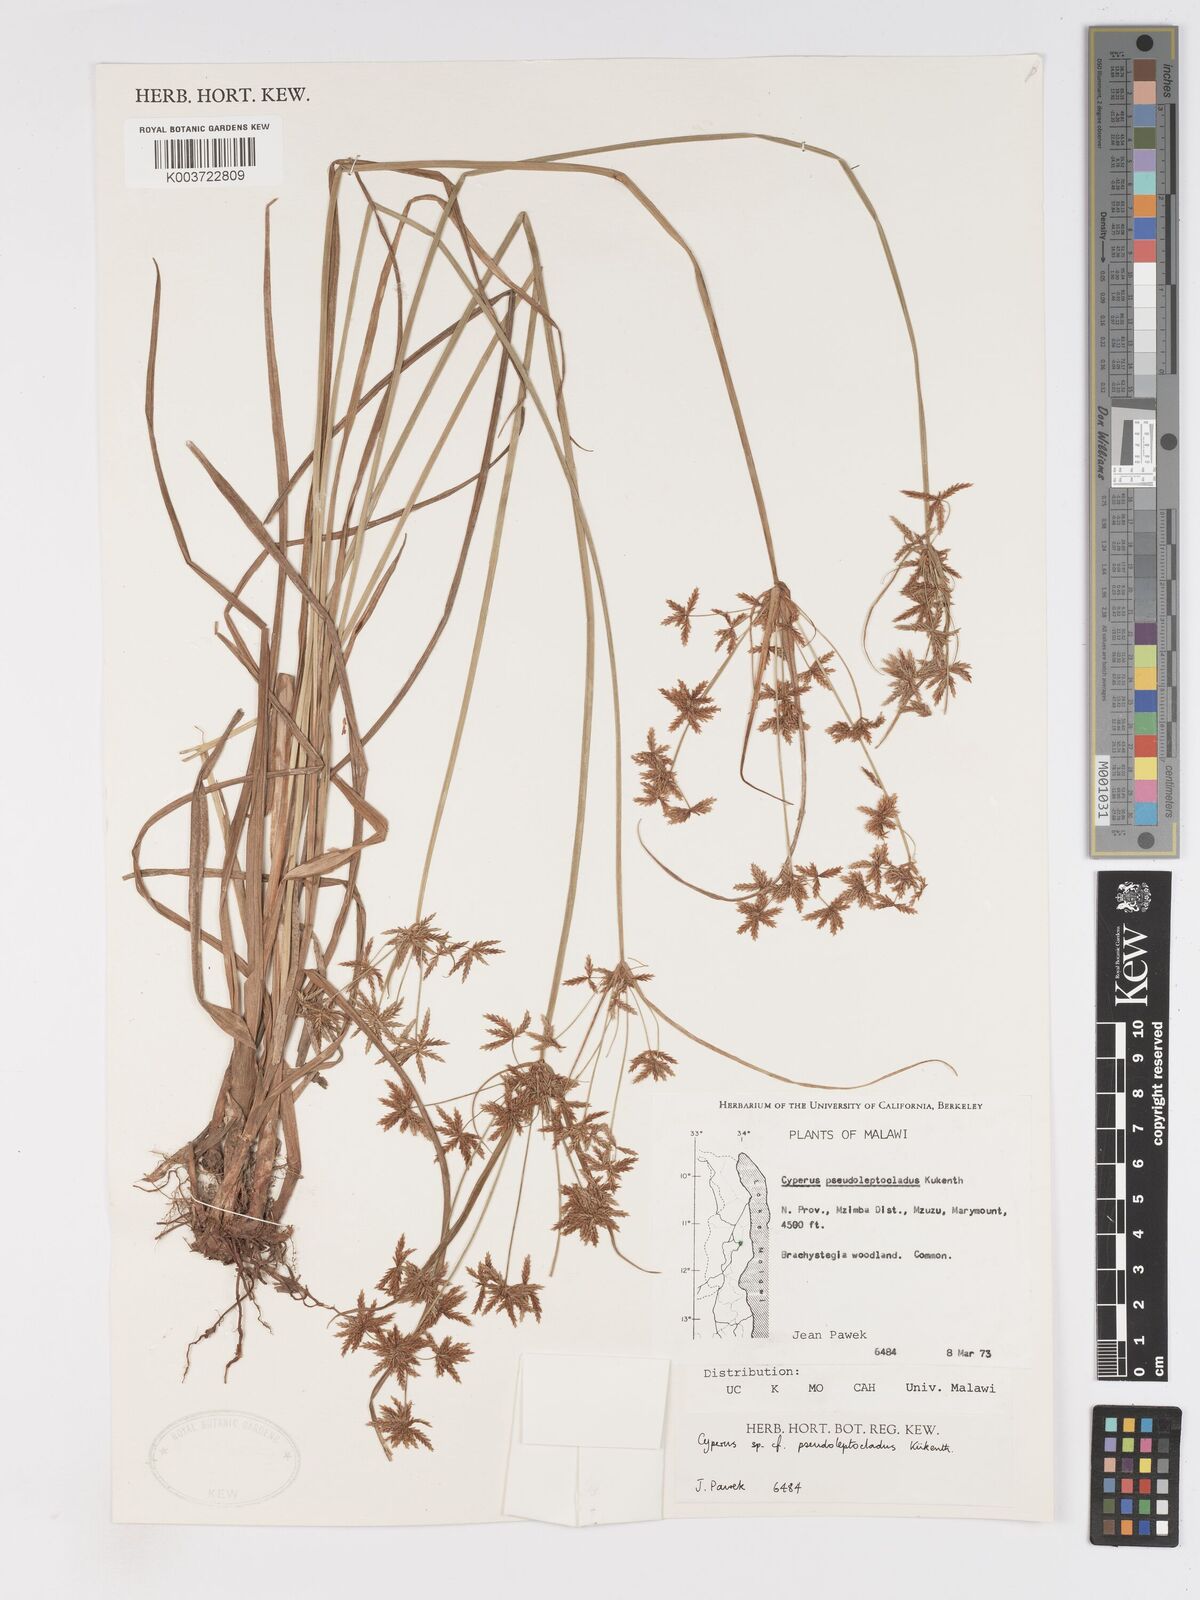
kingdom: Plantae
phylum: Tracheophyta
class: Liliopsida
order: Poales
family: Cyperaceae
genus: Cyperus
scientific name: Cyperus glaucophyllus
